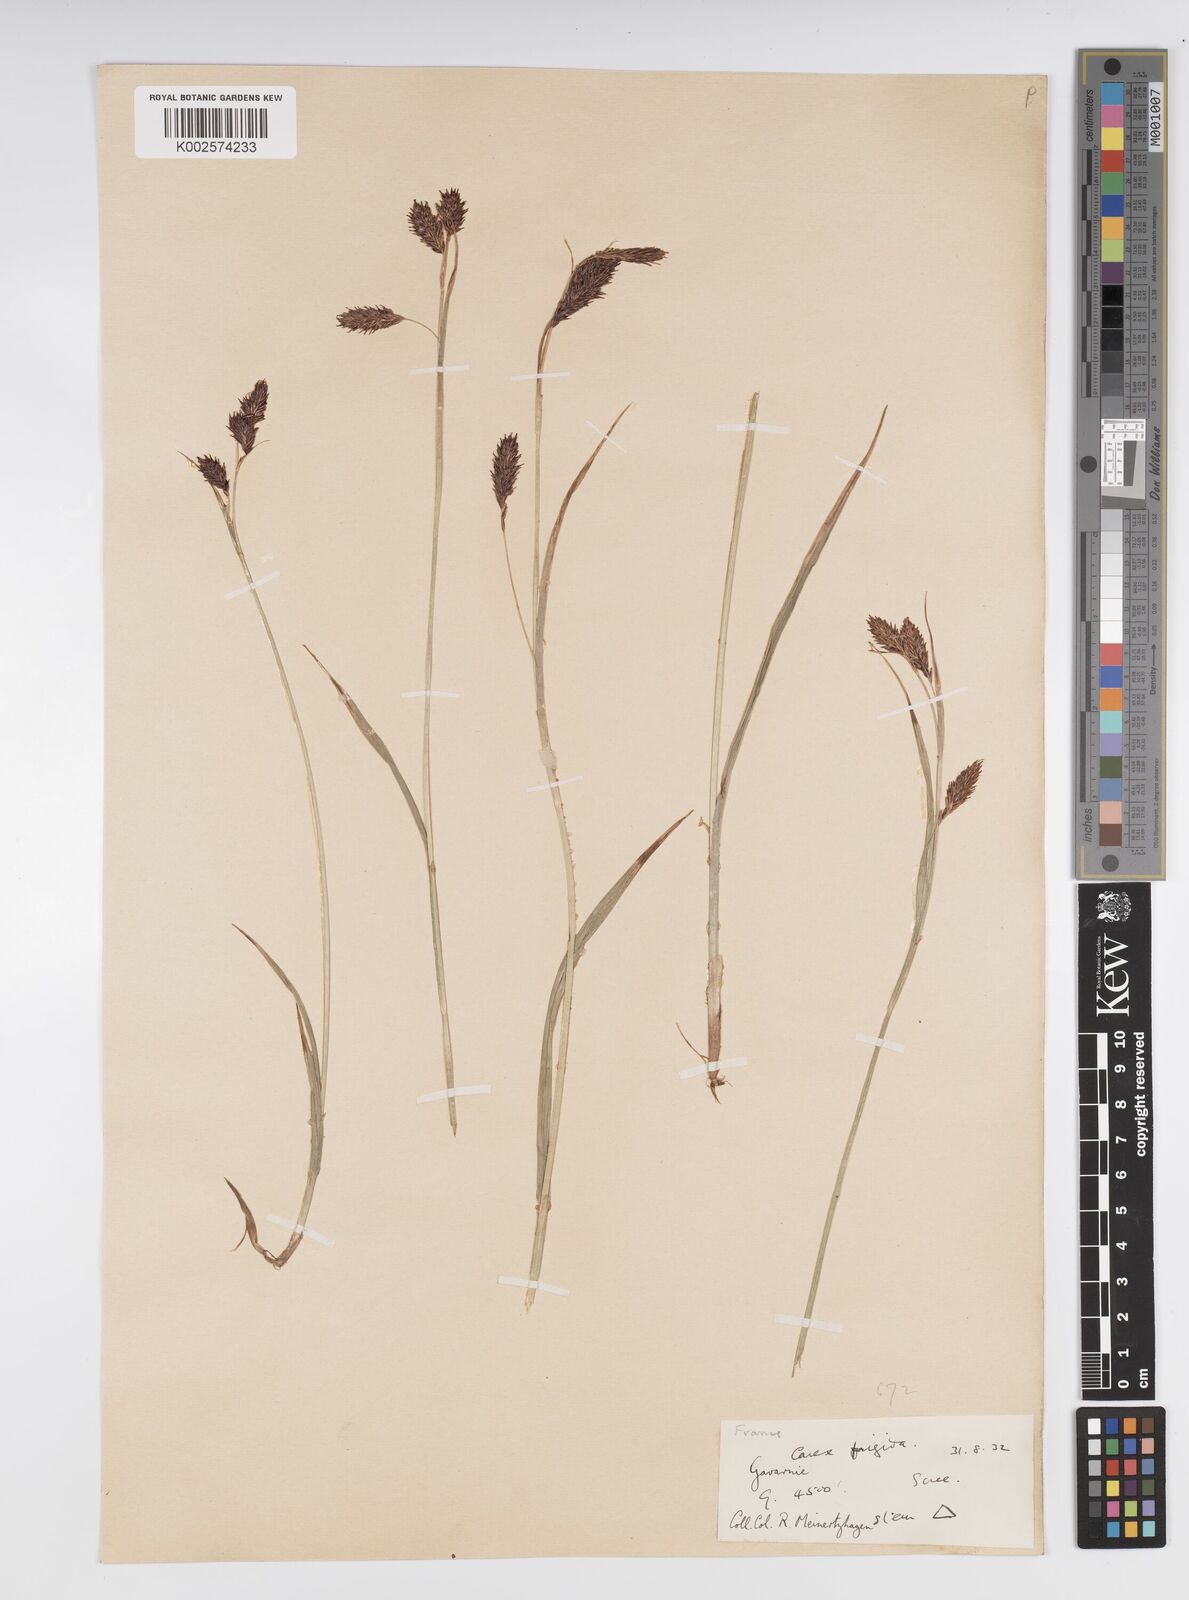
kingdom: Plantae
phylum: Tracheophyta
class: Liliopsida
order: Poales
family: Cyperaceae
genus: Carex
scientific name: Carex frigida
